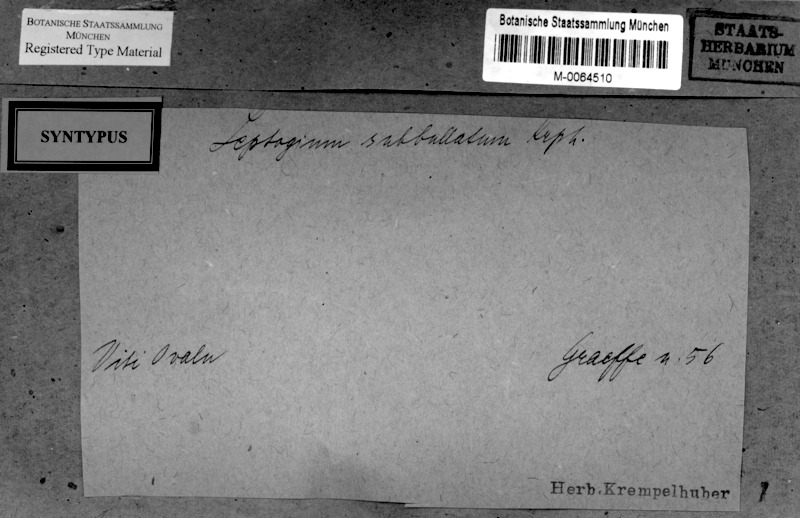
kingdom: Fungi
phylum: Ascomycota
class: Lecanoromycetes
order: Peltigerales
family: Collemataceae
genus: Leptogium
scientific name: Leptogium
